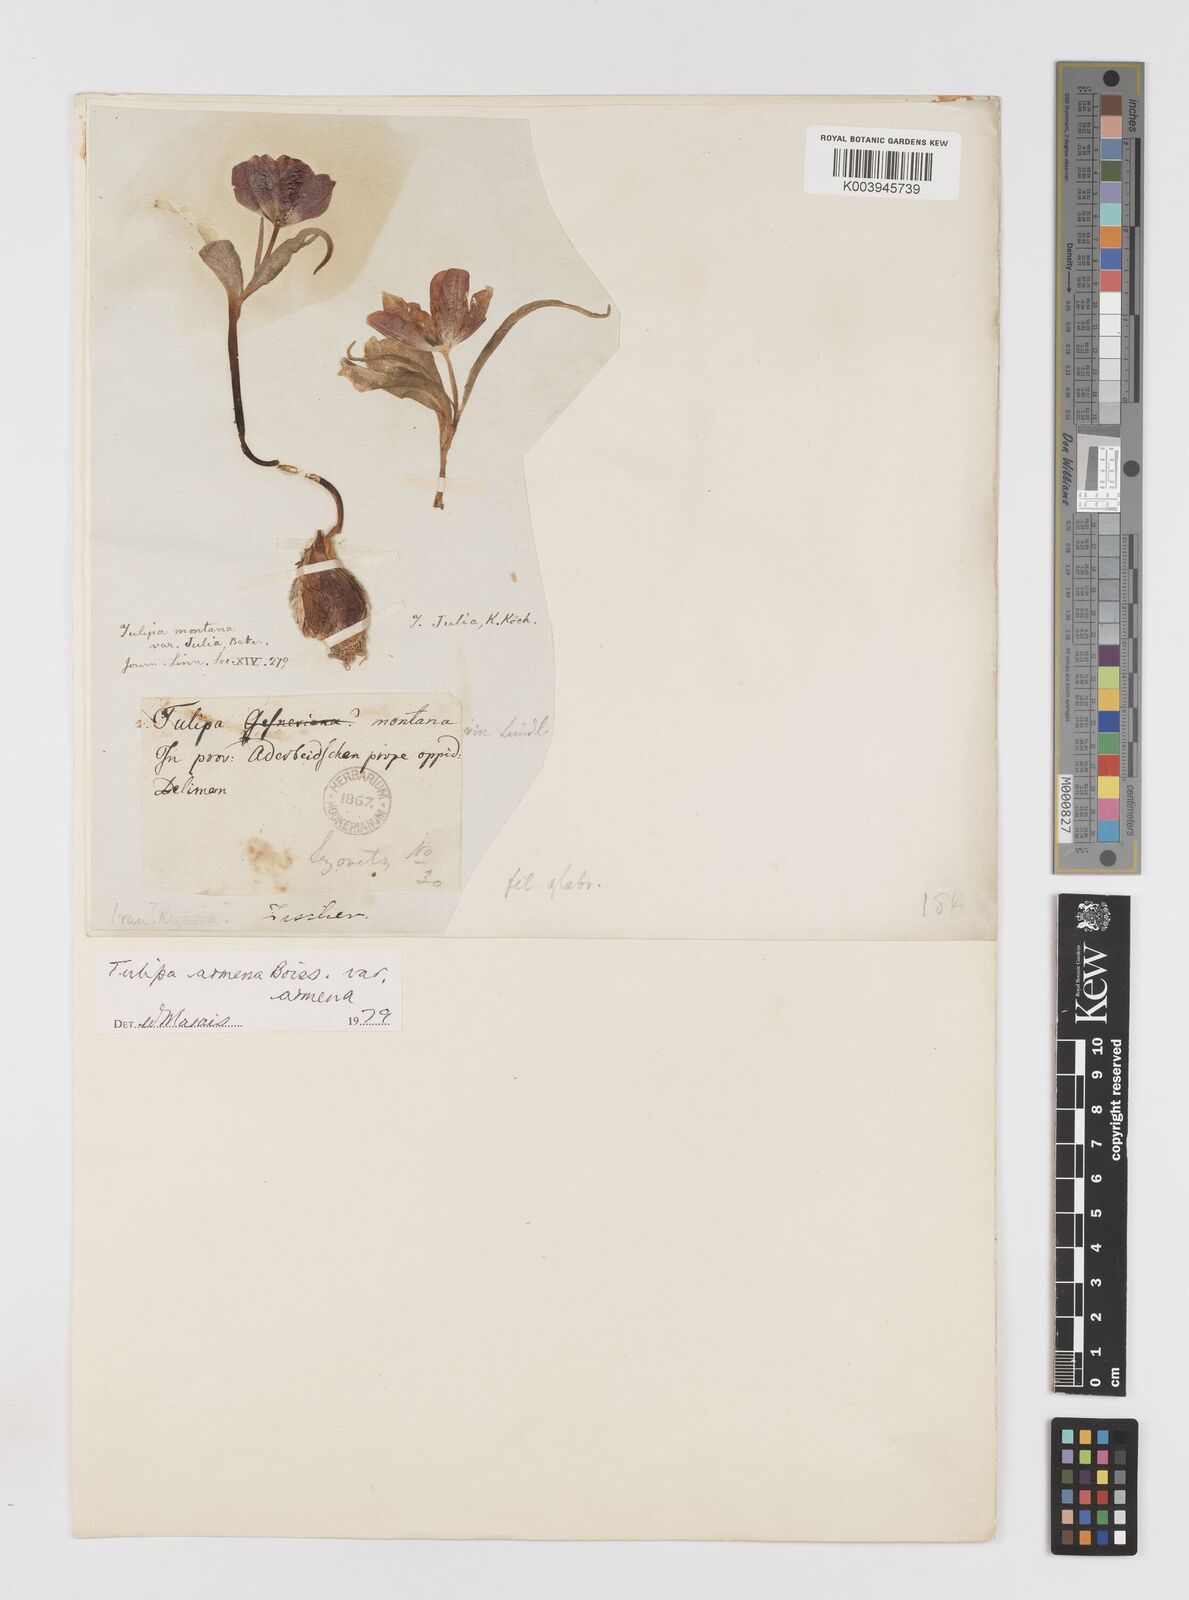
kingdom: Plantae
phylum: Tracheophyta
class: Liliopsida
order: Liliales
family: Liliaceae
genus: Tulipa
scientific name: Tulipa armena
